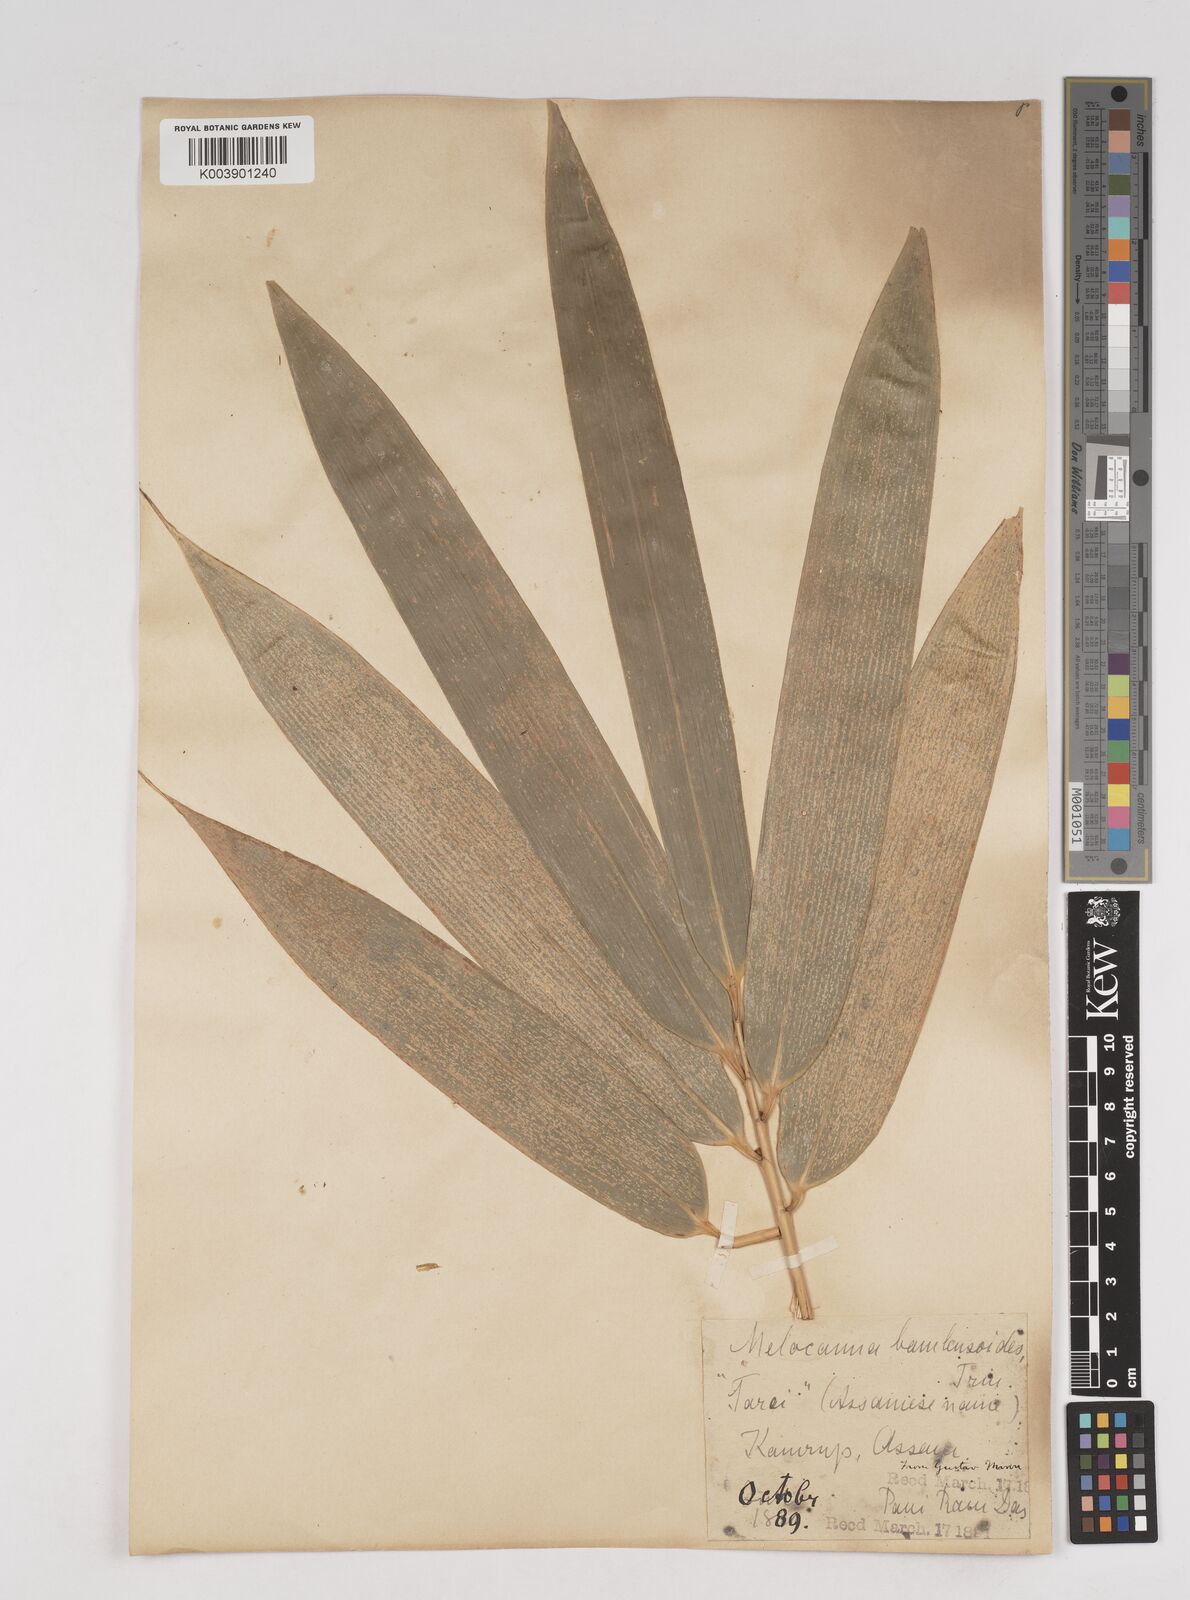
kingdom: Plantae
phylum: Tracheophyta
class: Liliopsida
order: Poales
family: Poaceae
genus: Melocanna
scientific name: Melocanna baccifera
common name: Berry bamboo
